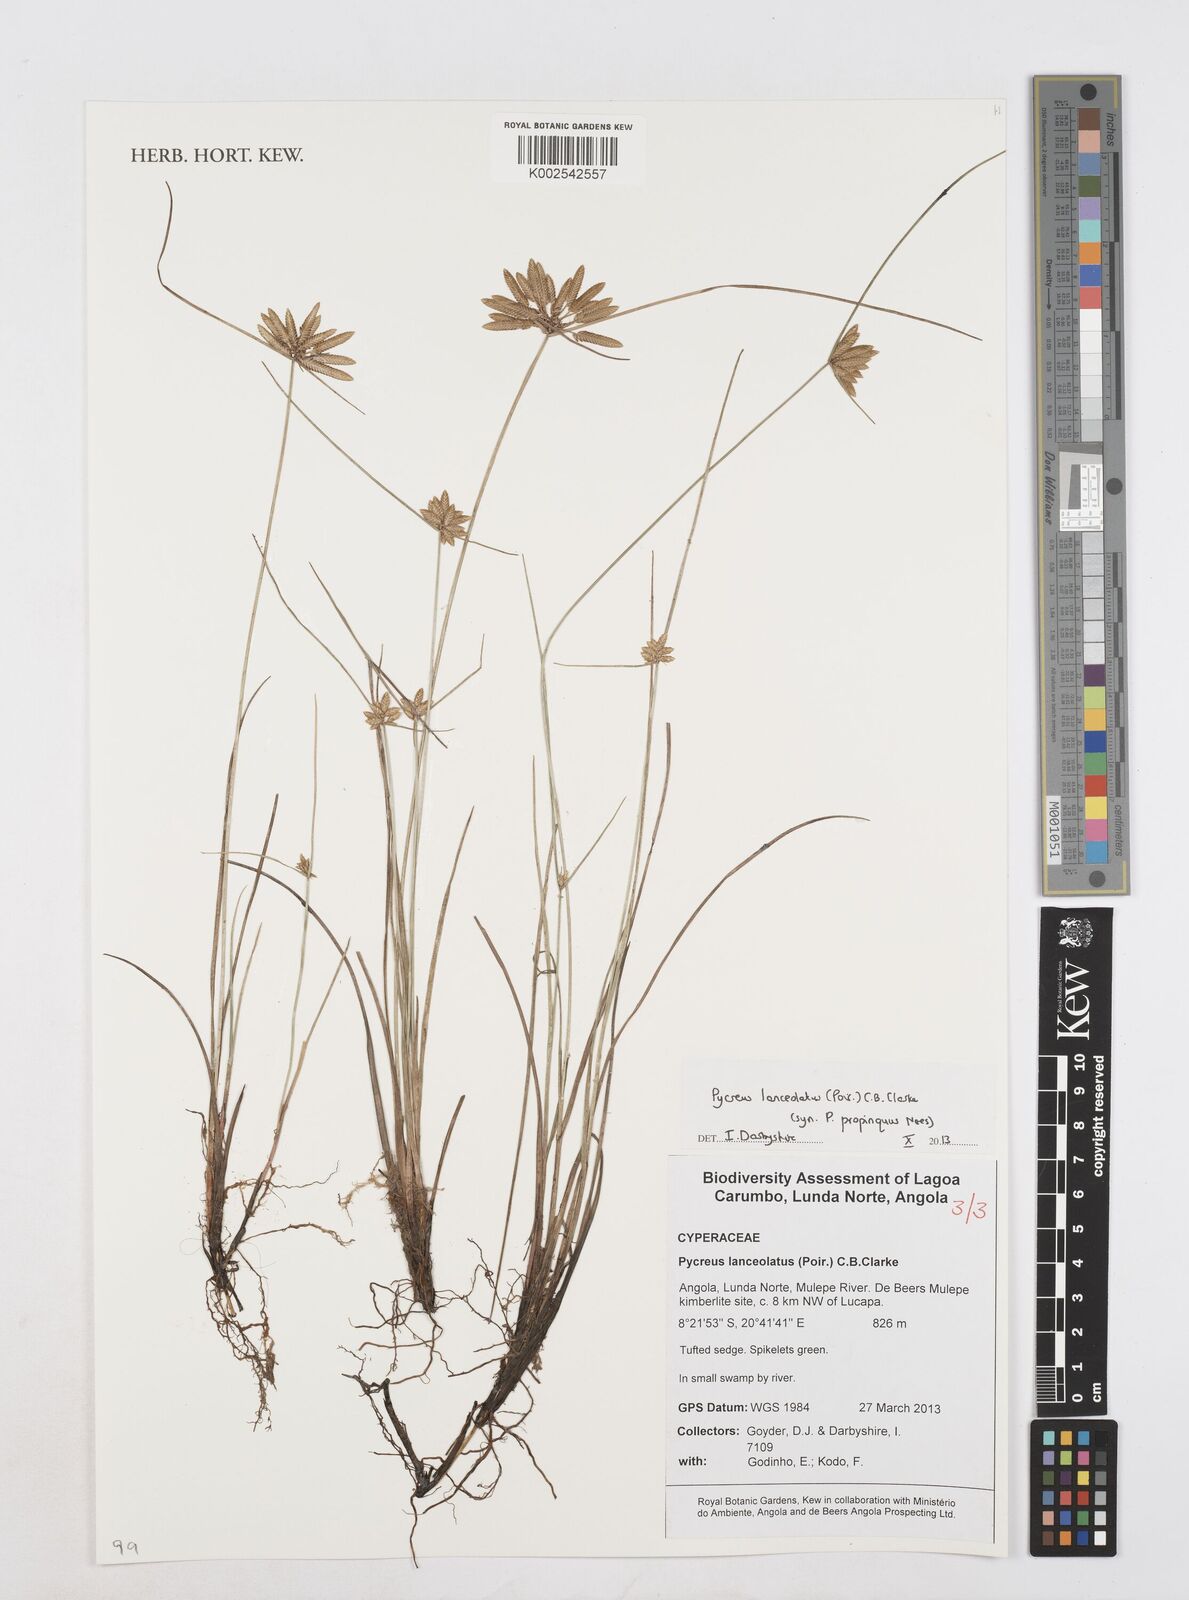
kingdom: Plantae
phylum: Tracheophyta
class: Liliopsida
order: Poales
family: Cyperaceae
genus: Cyperus
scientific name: Cyperus
